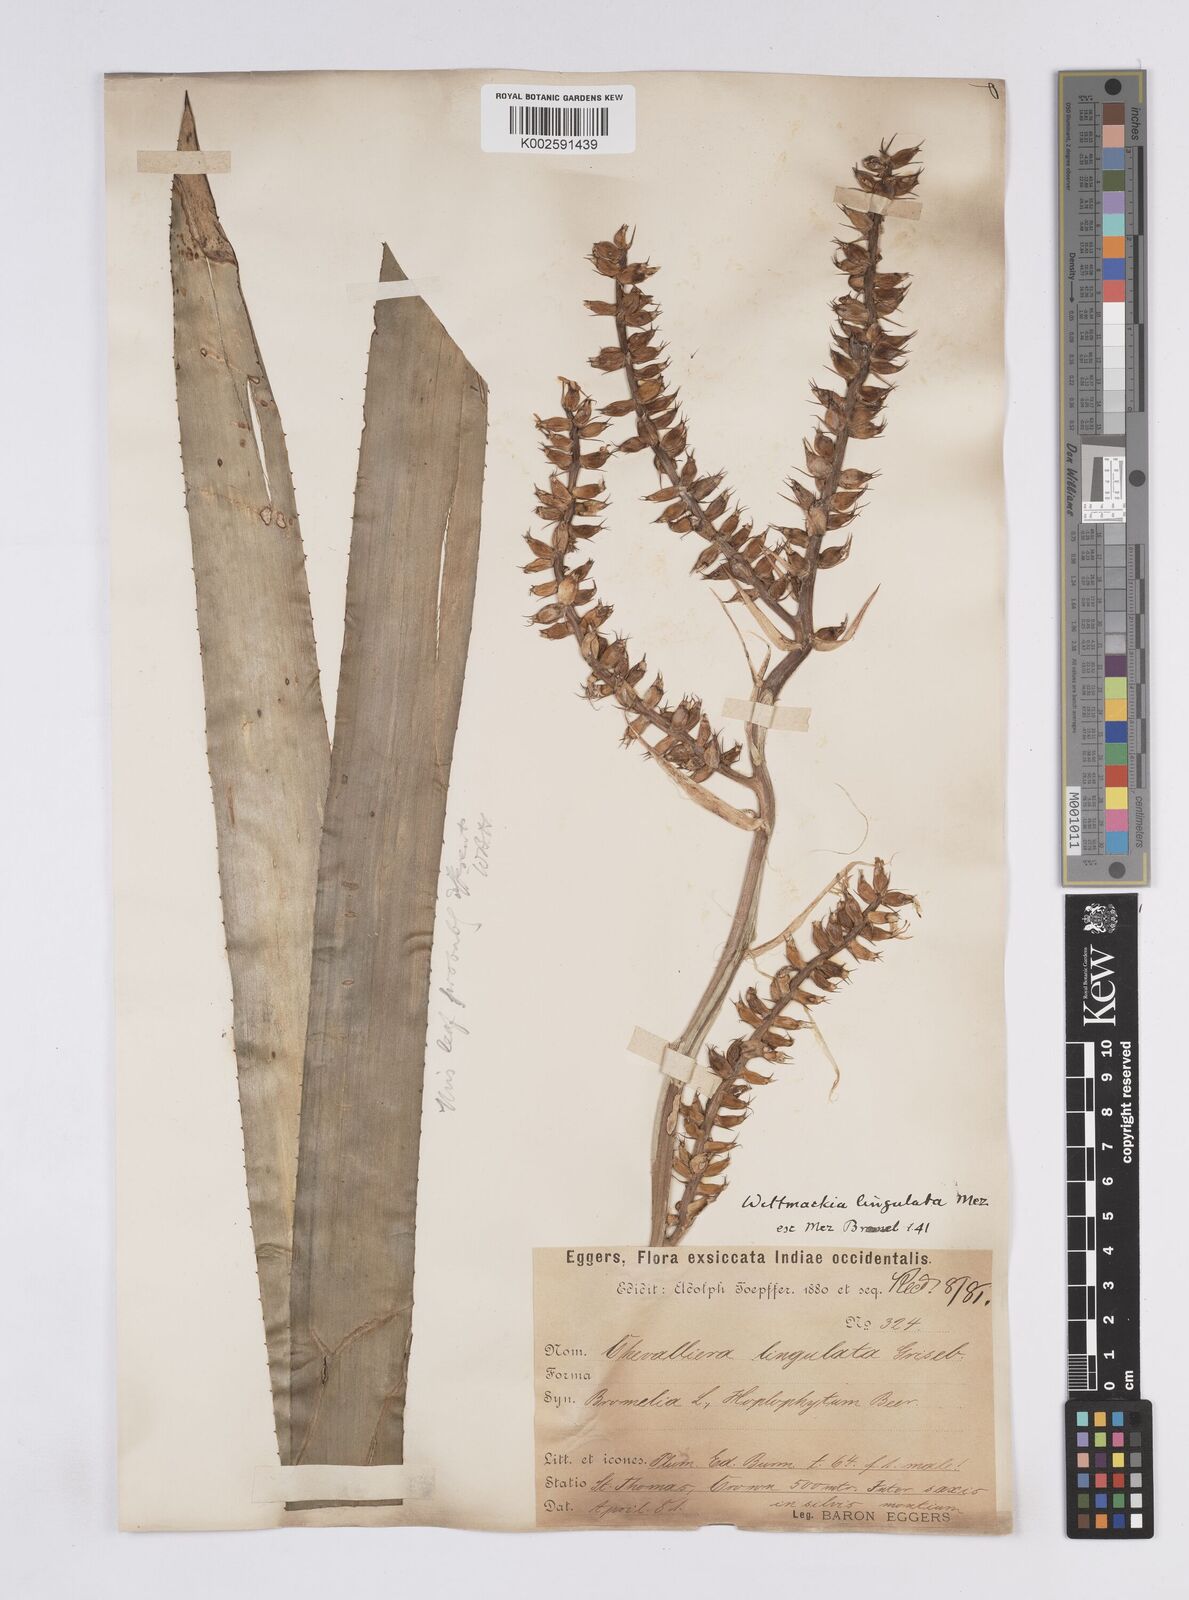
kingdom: Plantae
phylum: Tracheophyta
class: Liliopsida
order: Poales
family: Bromeliaceae
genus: Wittmackia
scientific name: Wittmackia lingulata
